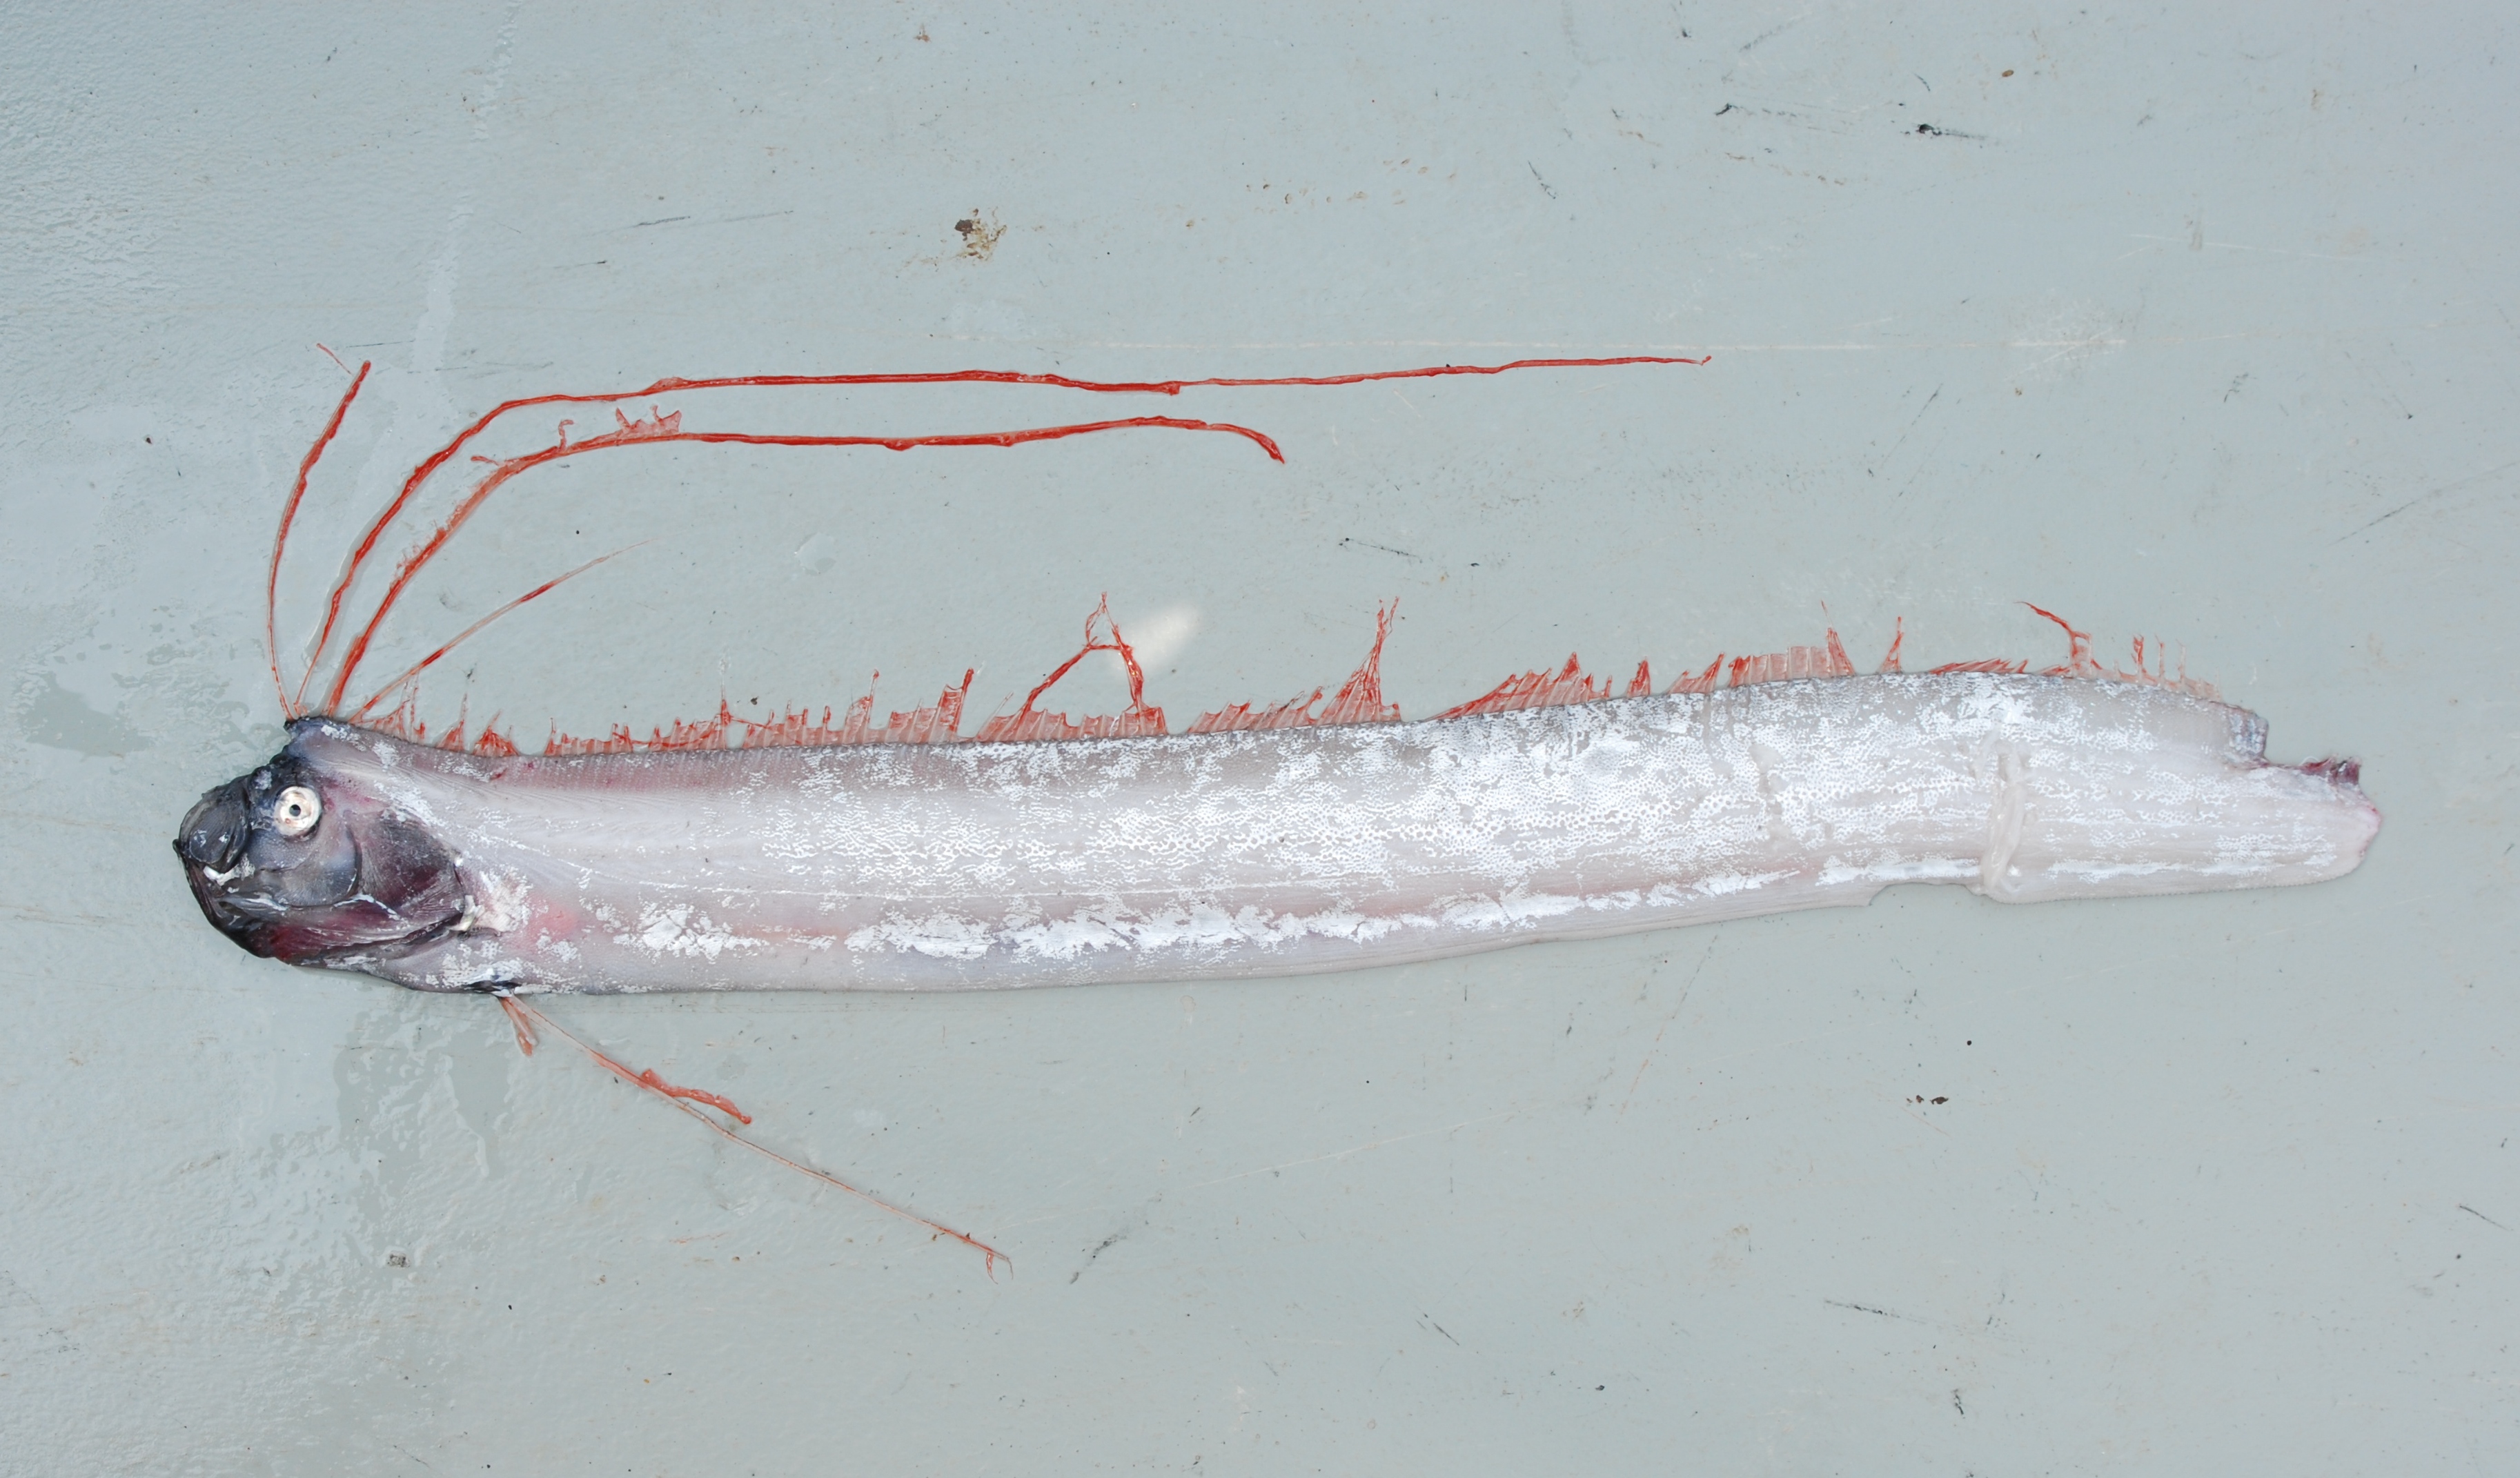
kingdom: Animalia
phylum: Chordata
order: Lampriformes
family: Regalecidae
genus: Regalecus
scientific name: Regalecus russelii
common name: Oarfifsh
